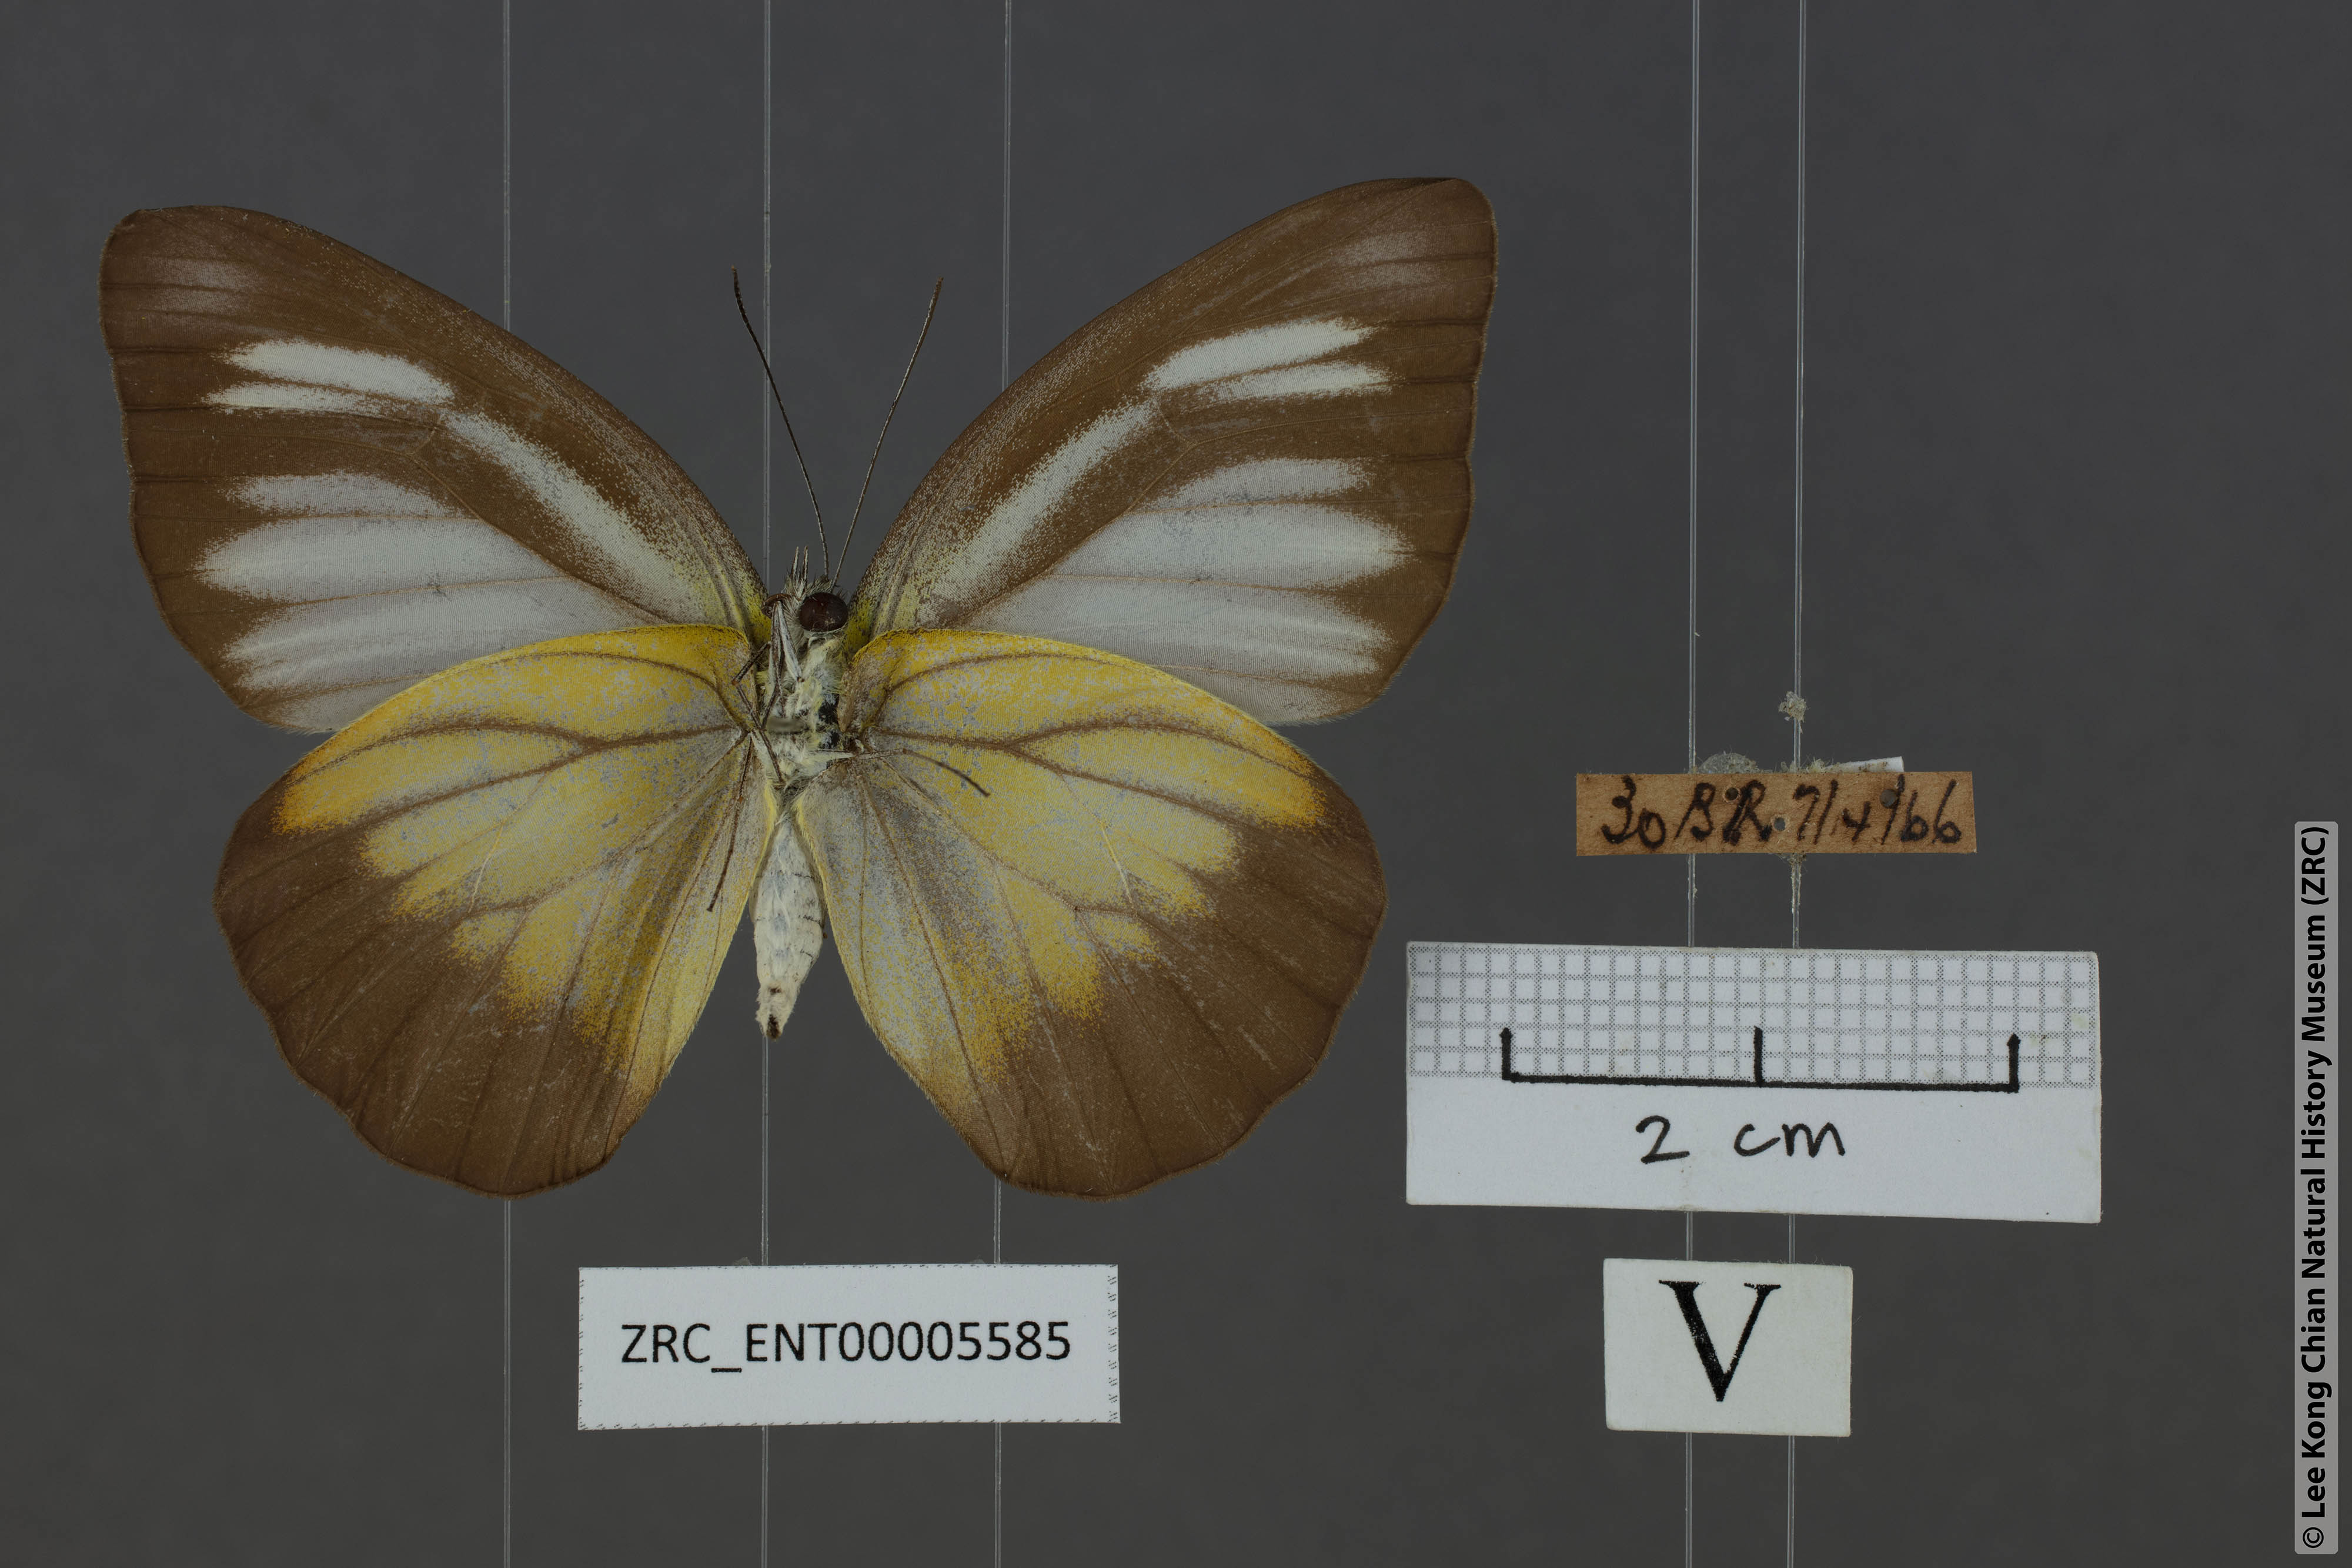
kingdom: Animalia
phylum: Arthropoda
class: Insecta
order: Lepidoptera
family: Pieridae
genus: Appias
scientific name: Appias lyncida
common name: Chocolate albatross
